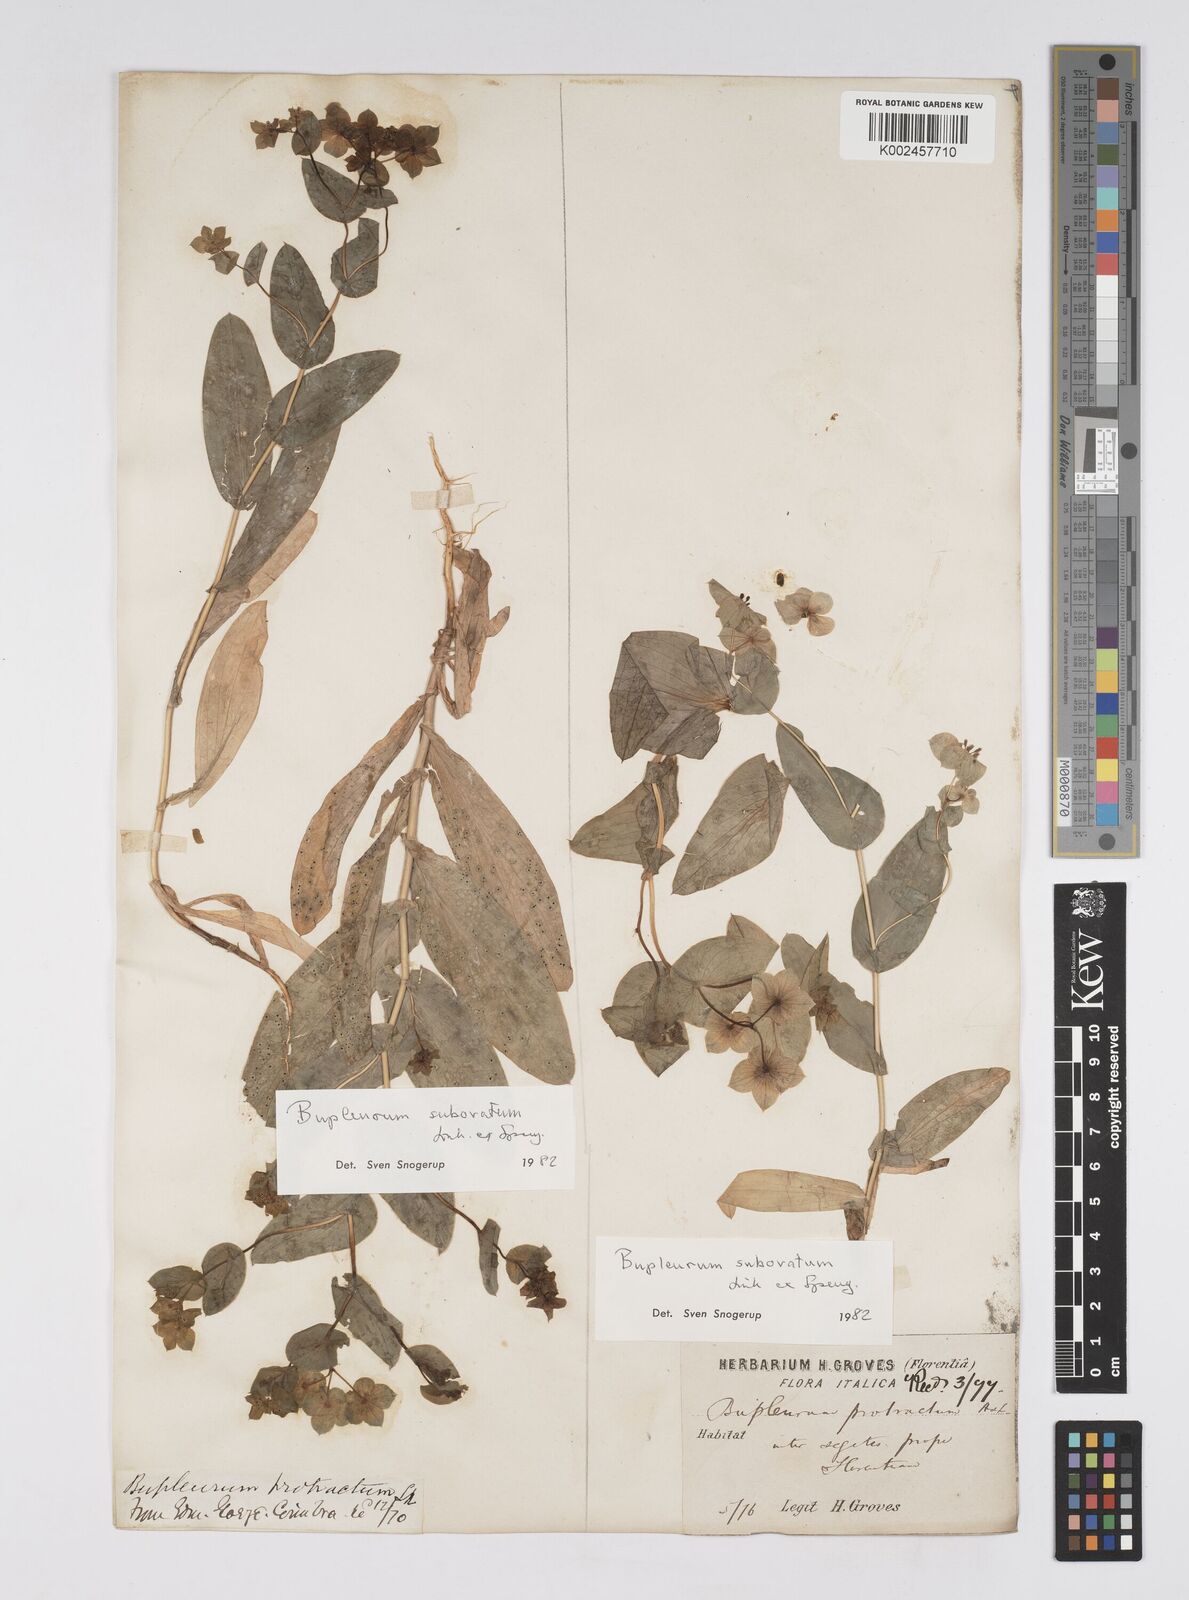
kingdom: Plantae
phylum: Tracheophyta
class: Magnoliopsida
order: Apiales
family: Apiaceae
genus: Bupleurum
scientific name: Bupleurum lancifolium
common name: False thorow-wax
